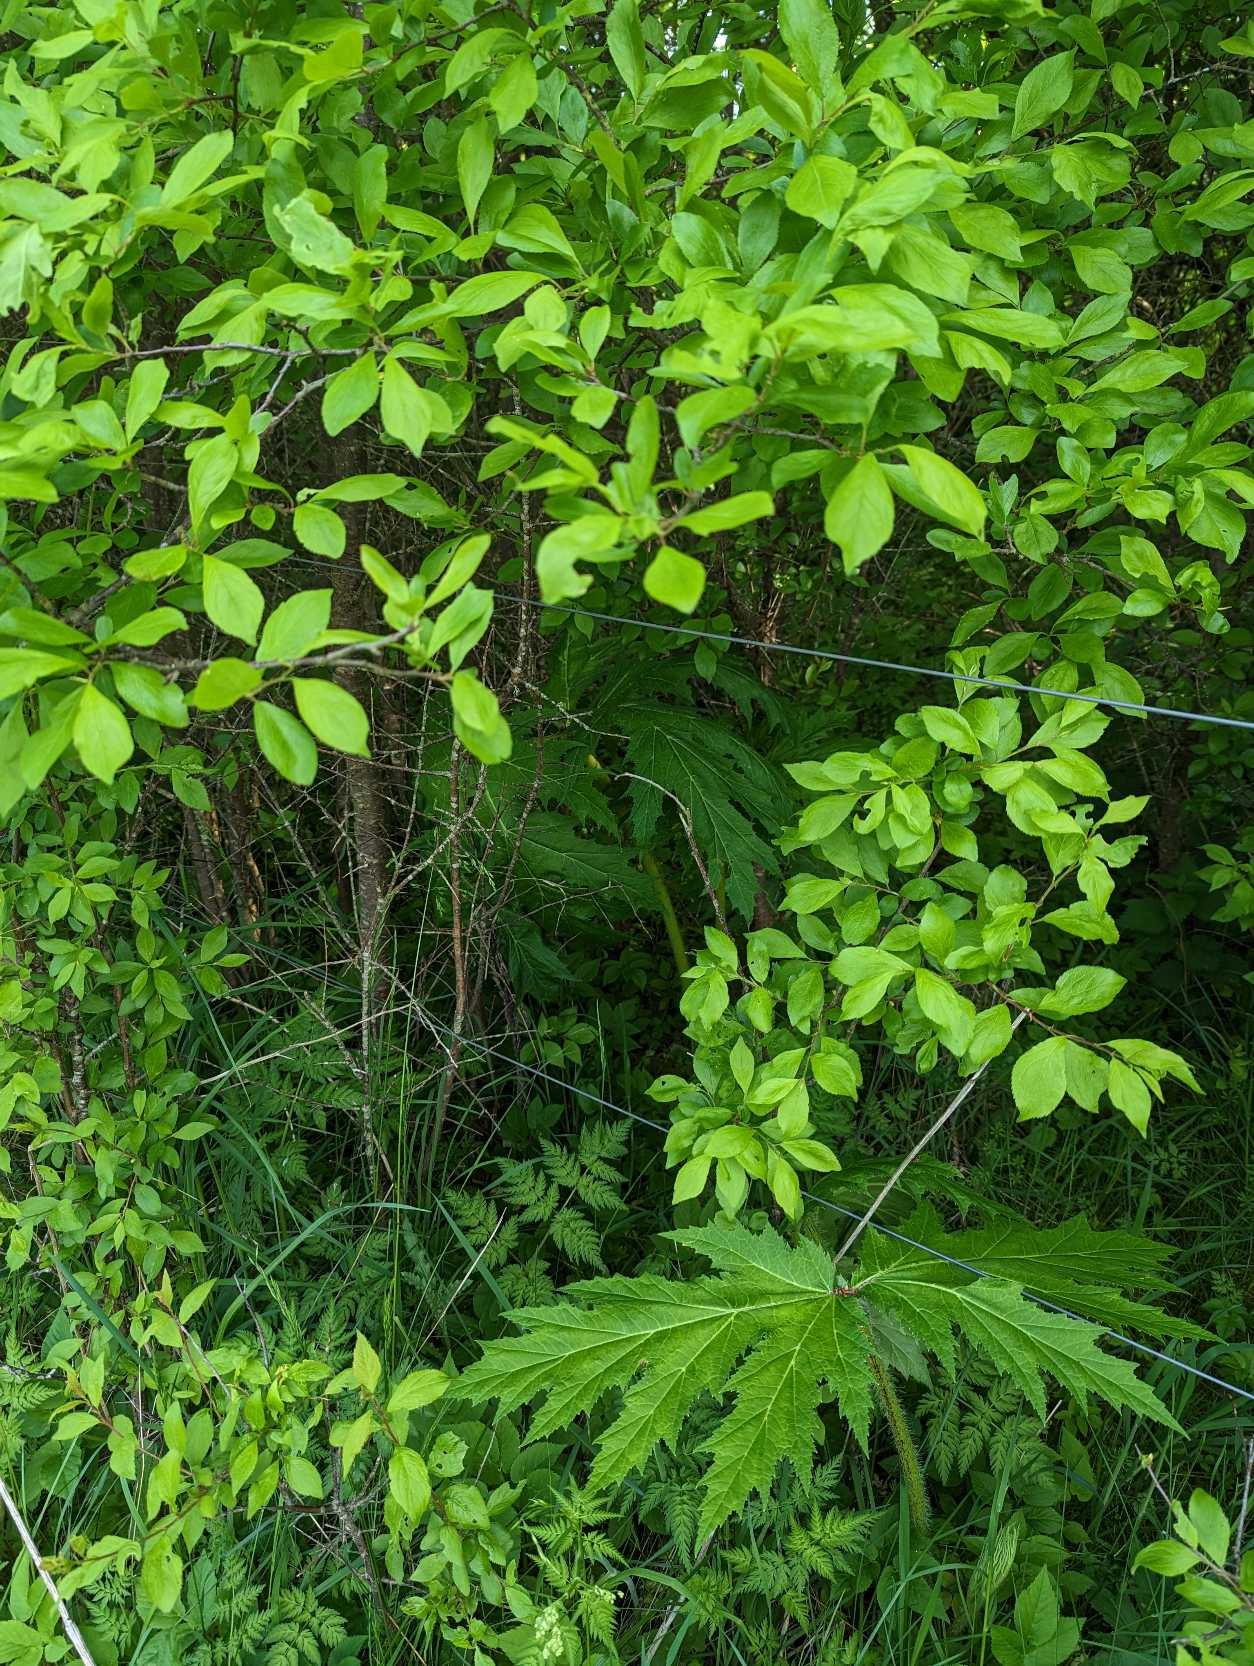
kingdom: Plantae
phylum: Tracheophyta
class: Magnoliopsida
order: Apiales
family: Apiaceae
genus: Heracleum
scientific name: Heracleum mantegazzianum
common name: Kæmpe-bjørneklo
